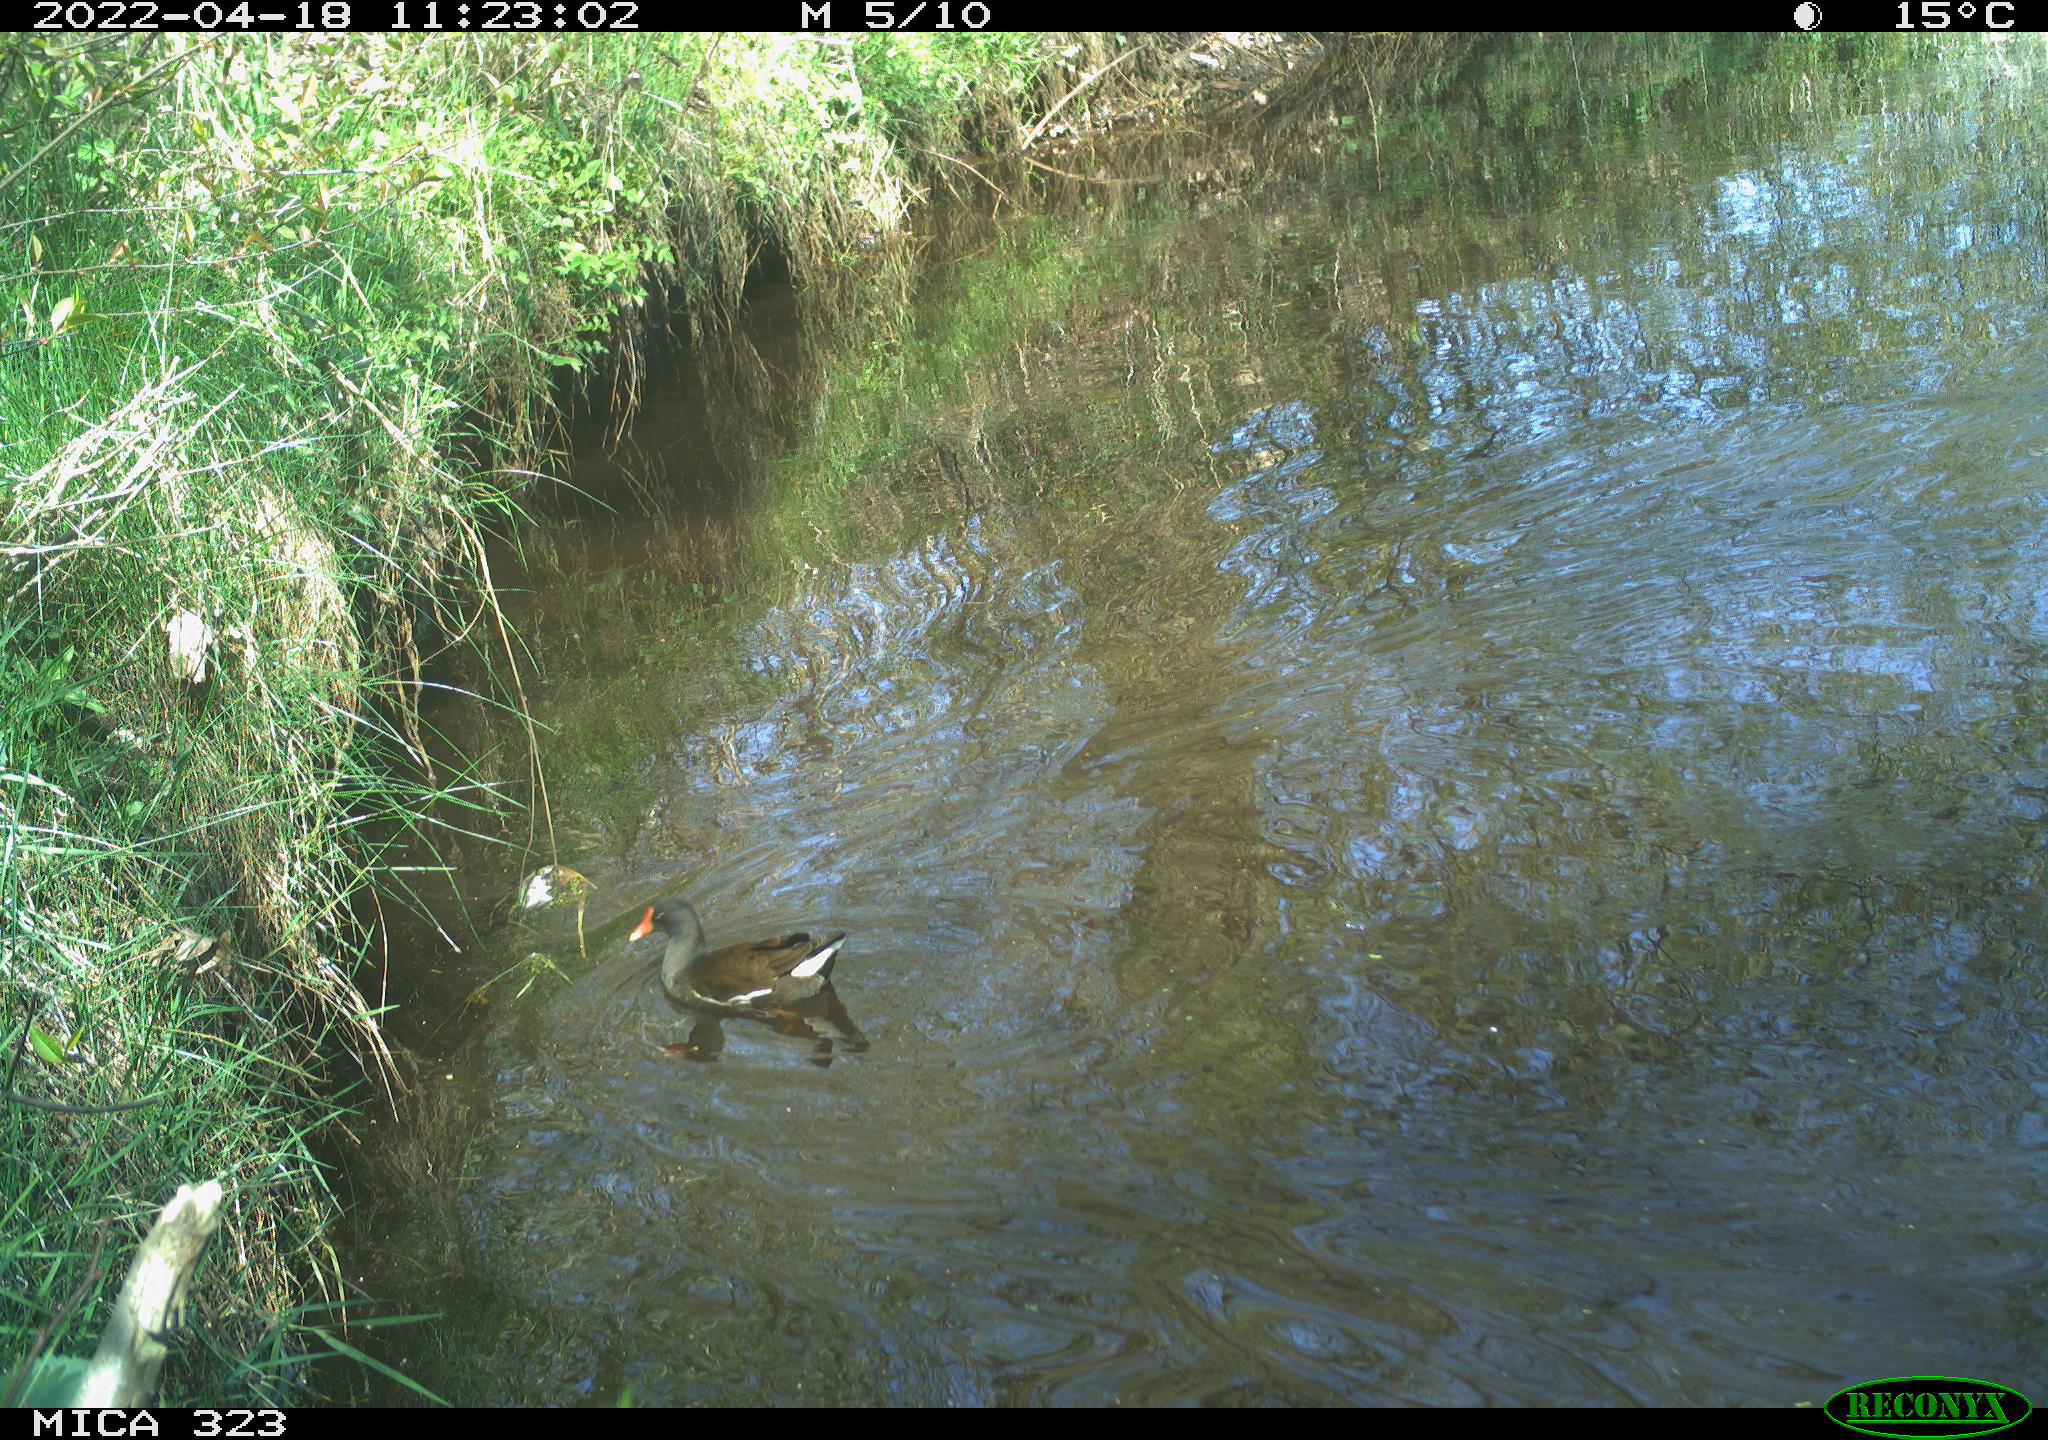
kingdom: Animalia
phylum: Chordata
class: Aves
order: Gruiformes
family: Rallidae
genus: Gallinula
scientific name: Gallinula chloropus
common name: Common moorhen
